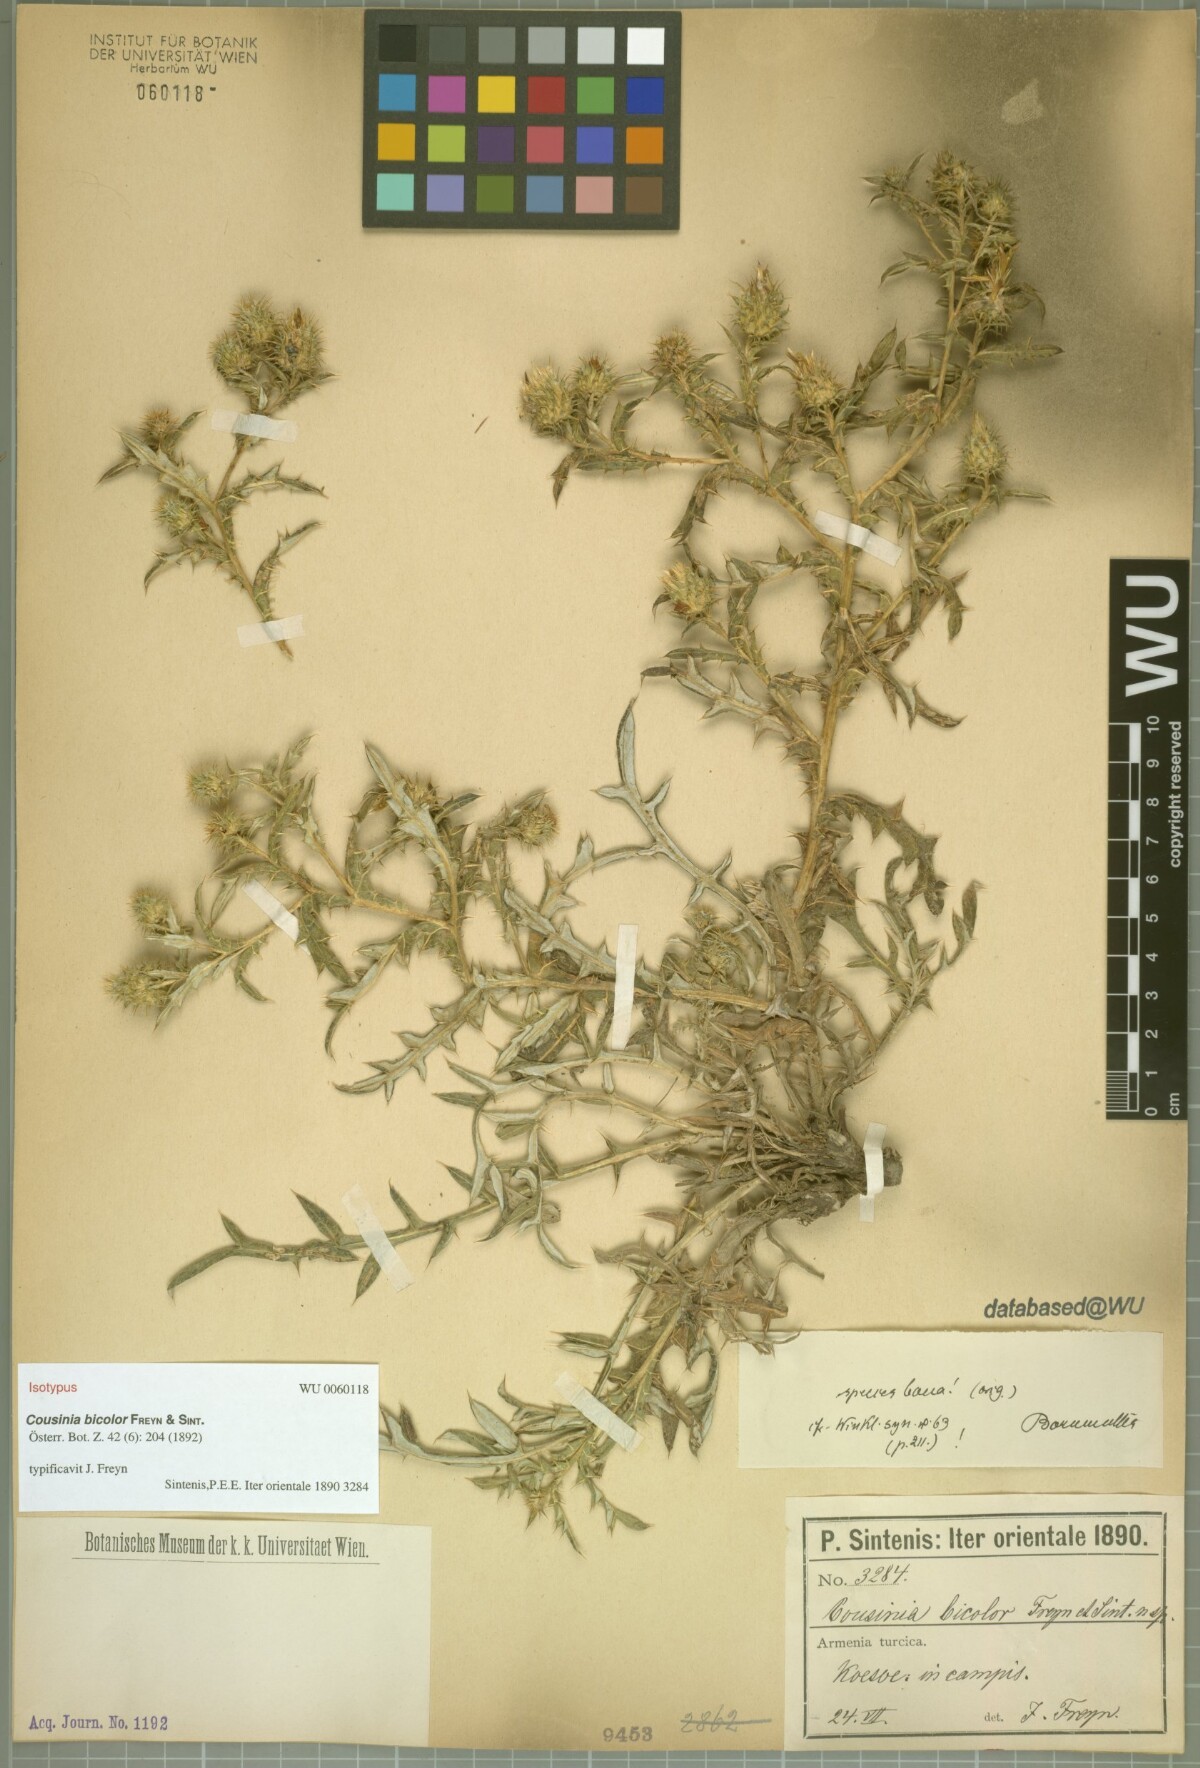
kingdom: Plantae
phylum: Tracheophyta
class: Magnoliopsida
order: Asterales
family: Asteraceae
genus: Cousinia
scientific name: Cousinia bicolor
